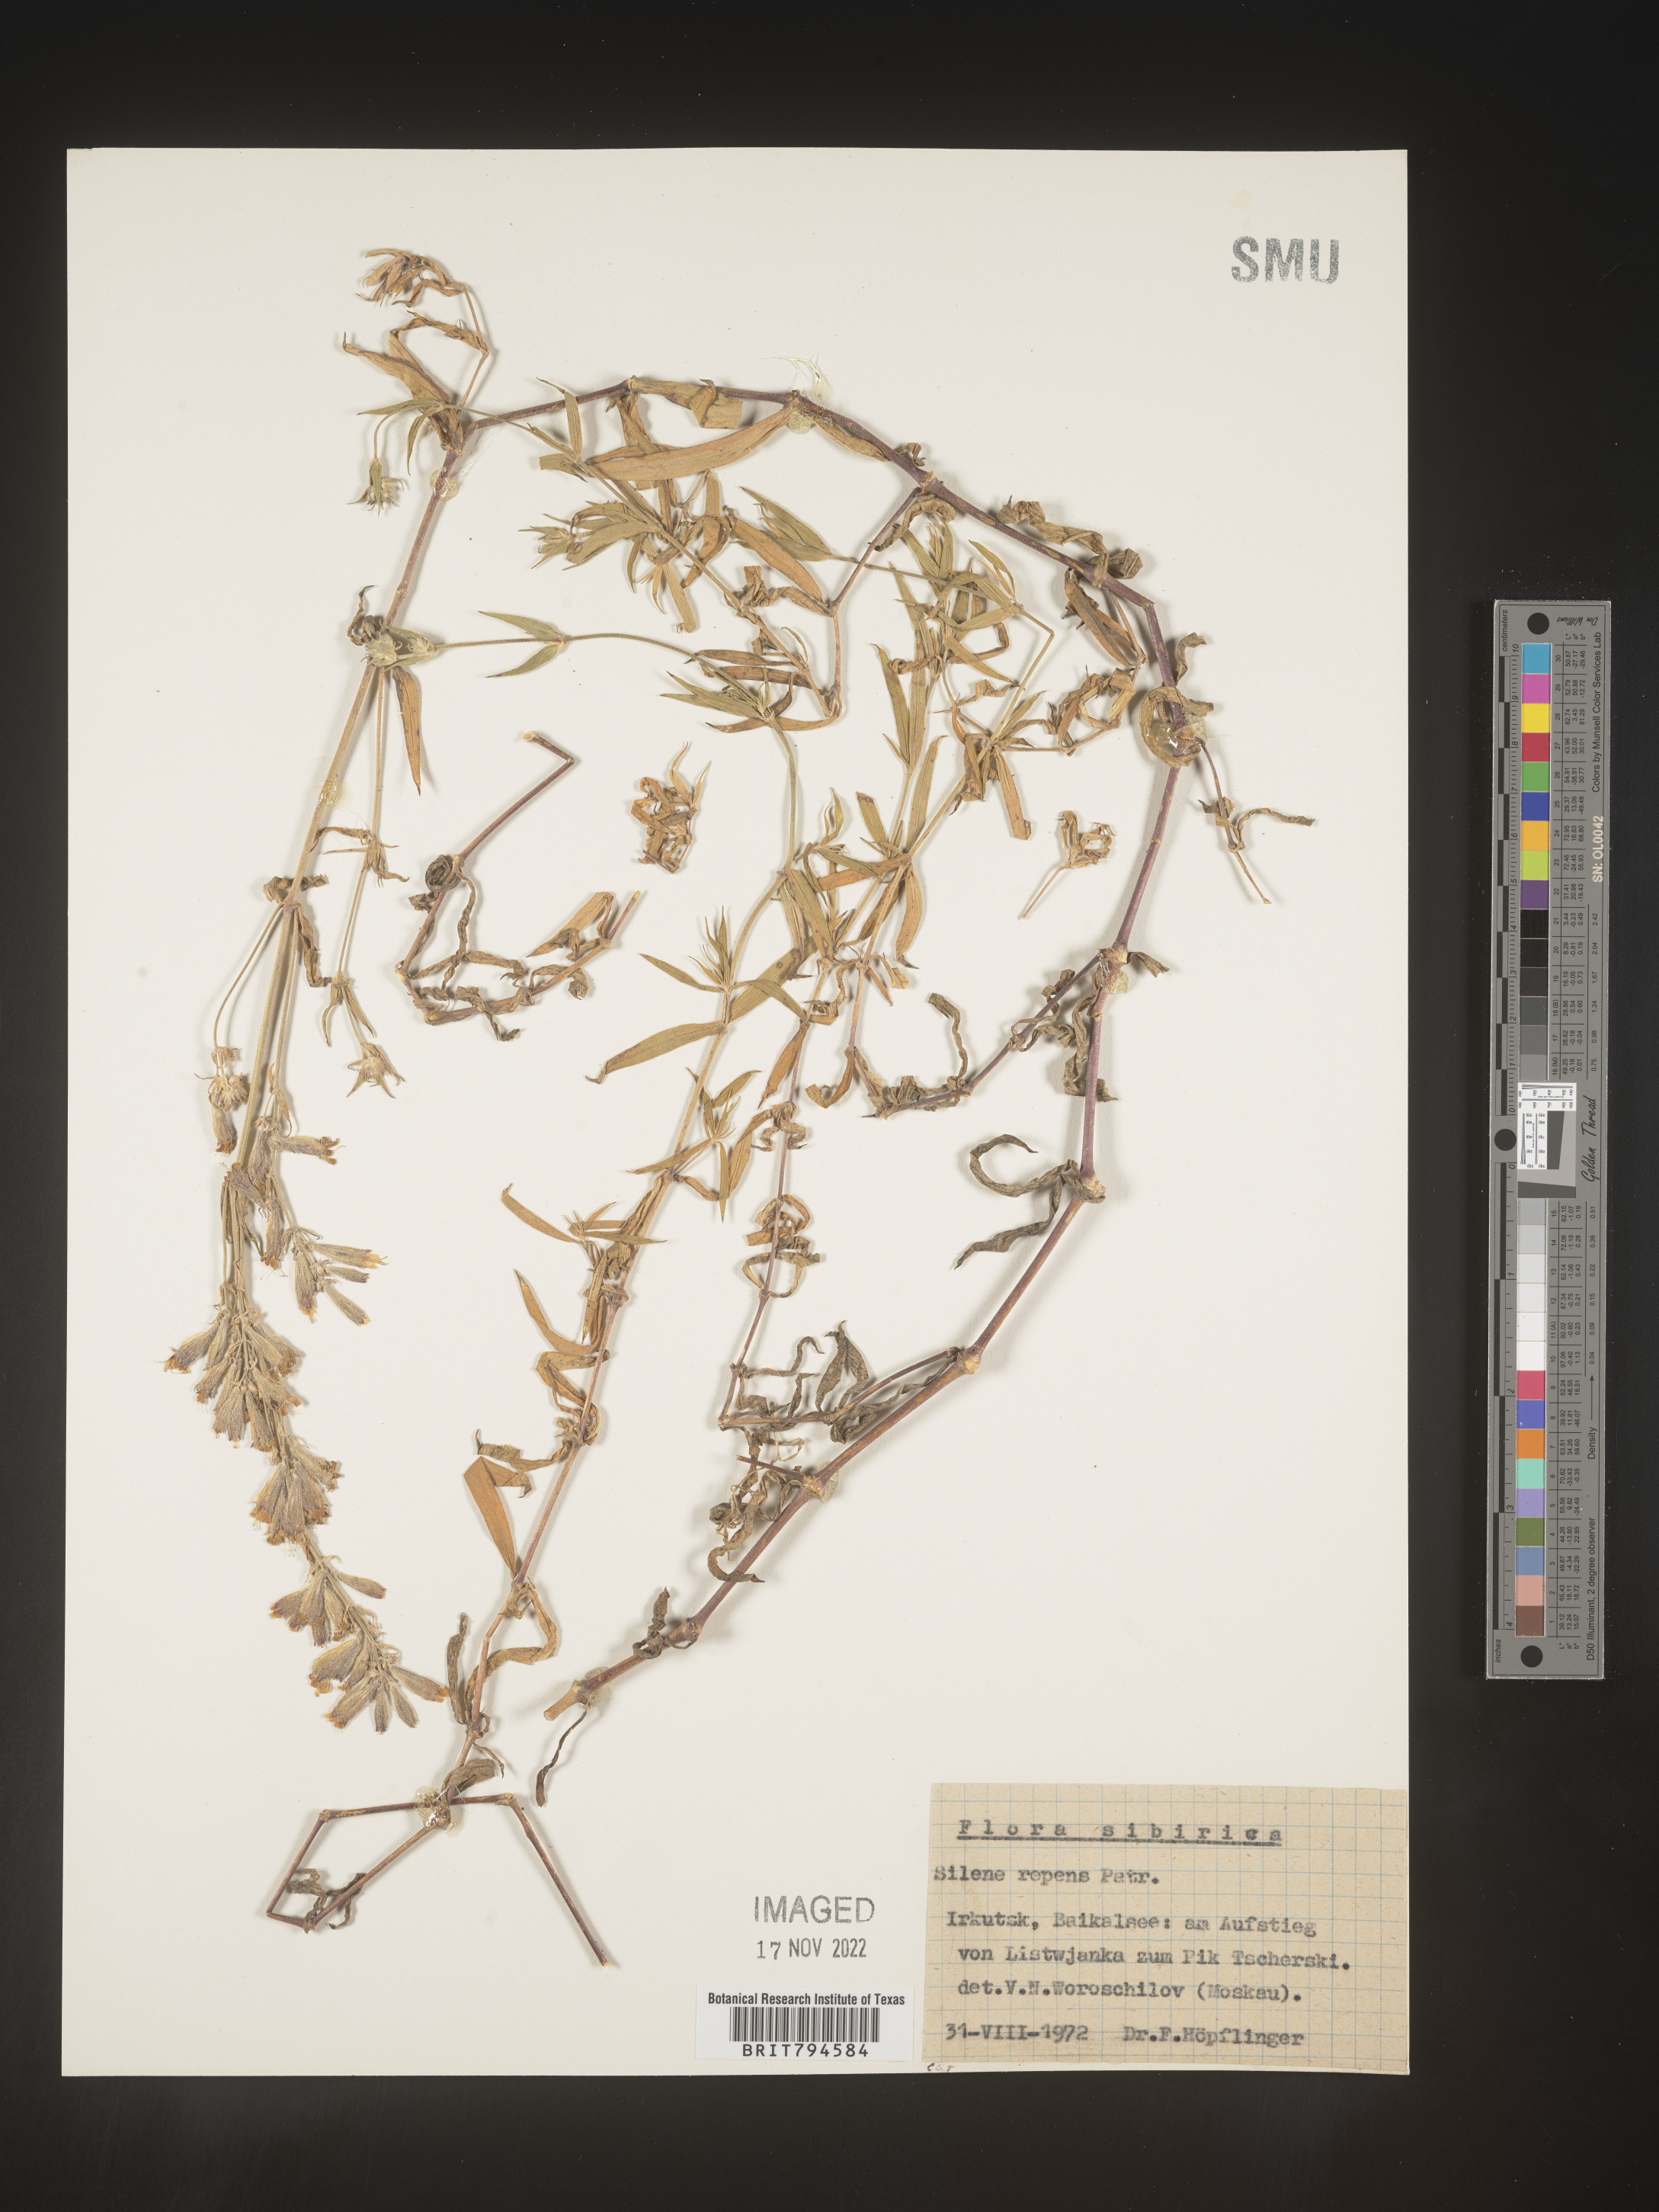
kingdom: Plantae
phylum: Tracheophyta
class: Magnoliopsida
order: Caryophyllales
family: Caryophyllaceae
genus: Silene
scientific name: Silene repens
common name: Pink campion
